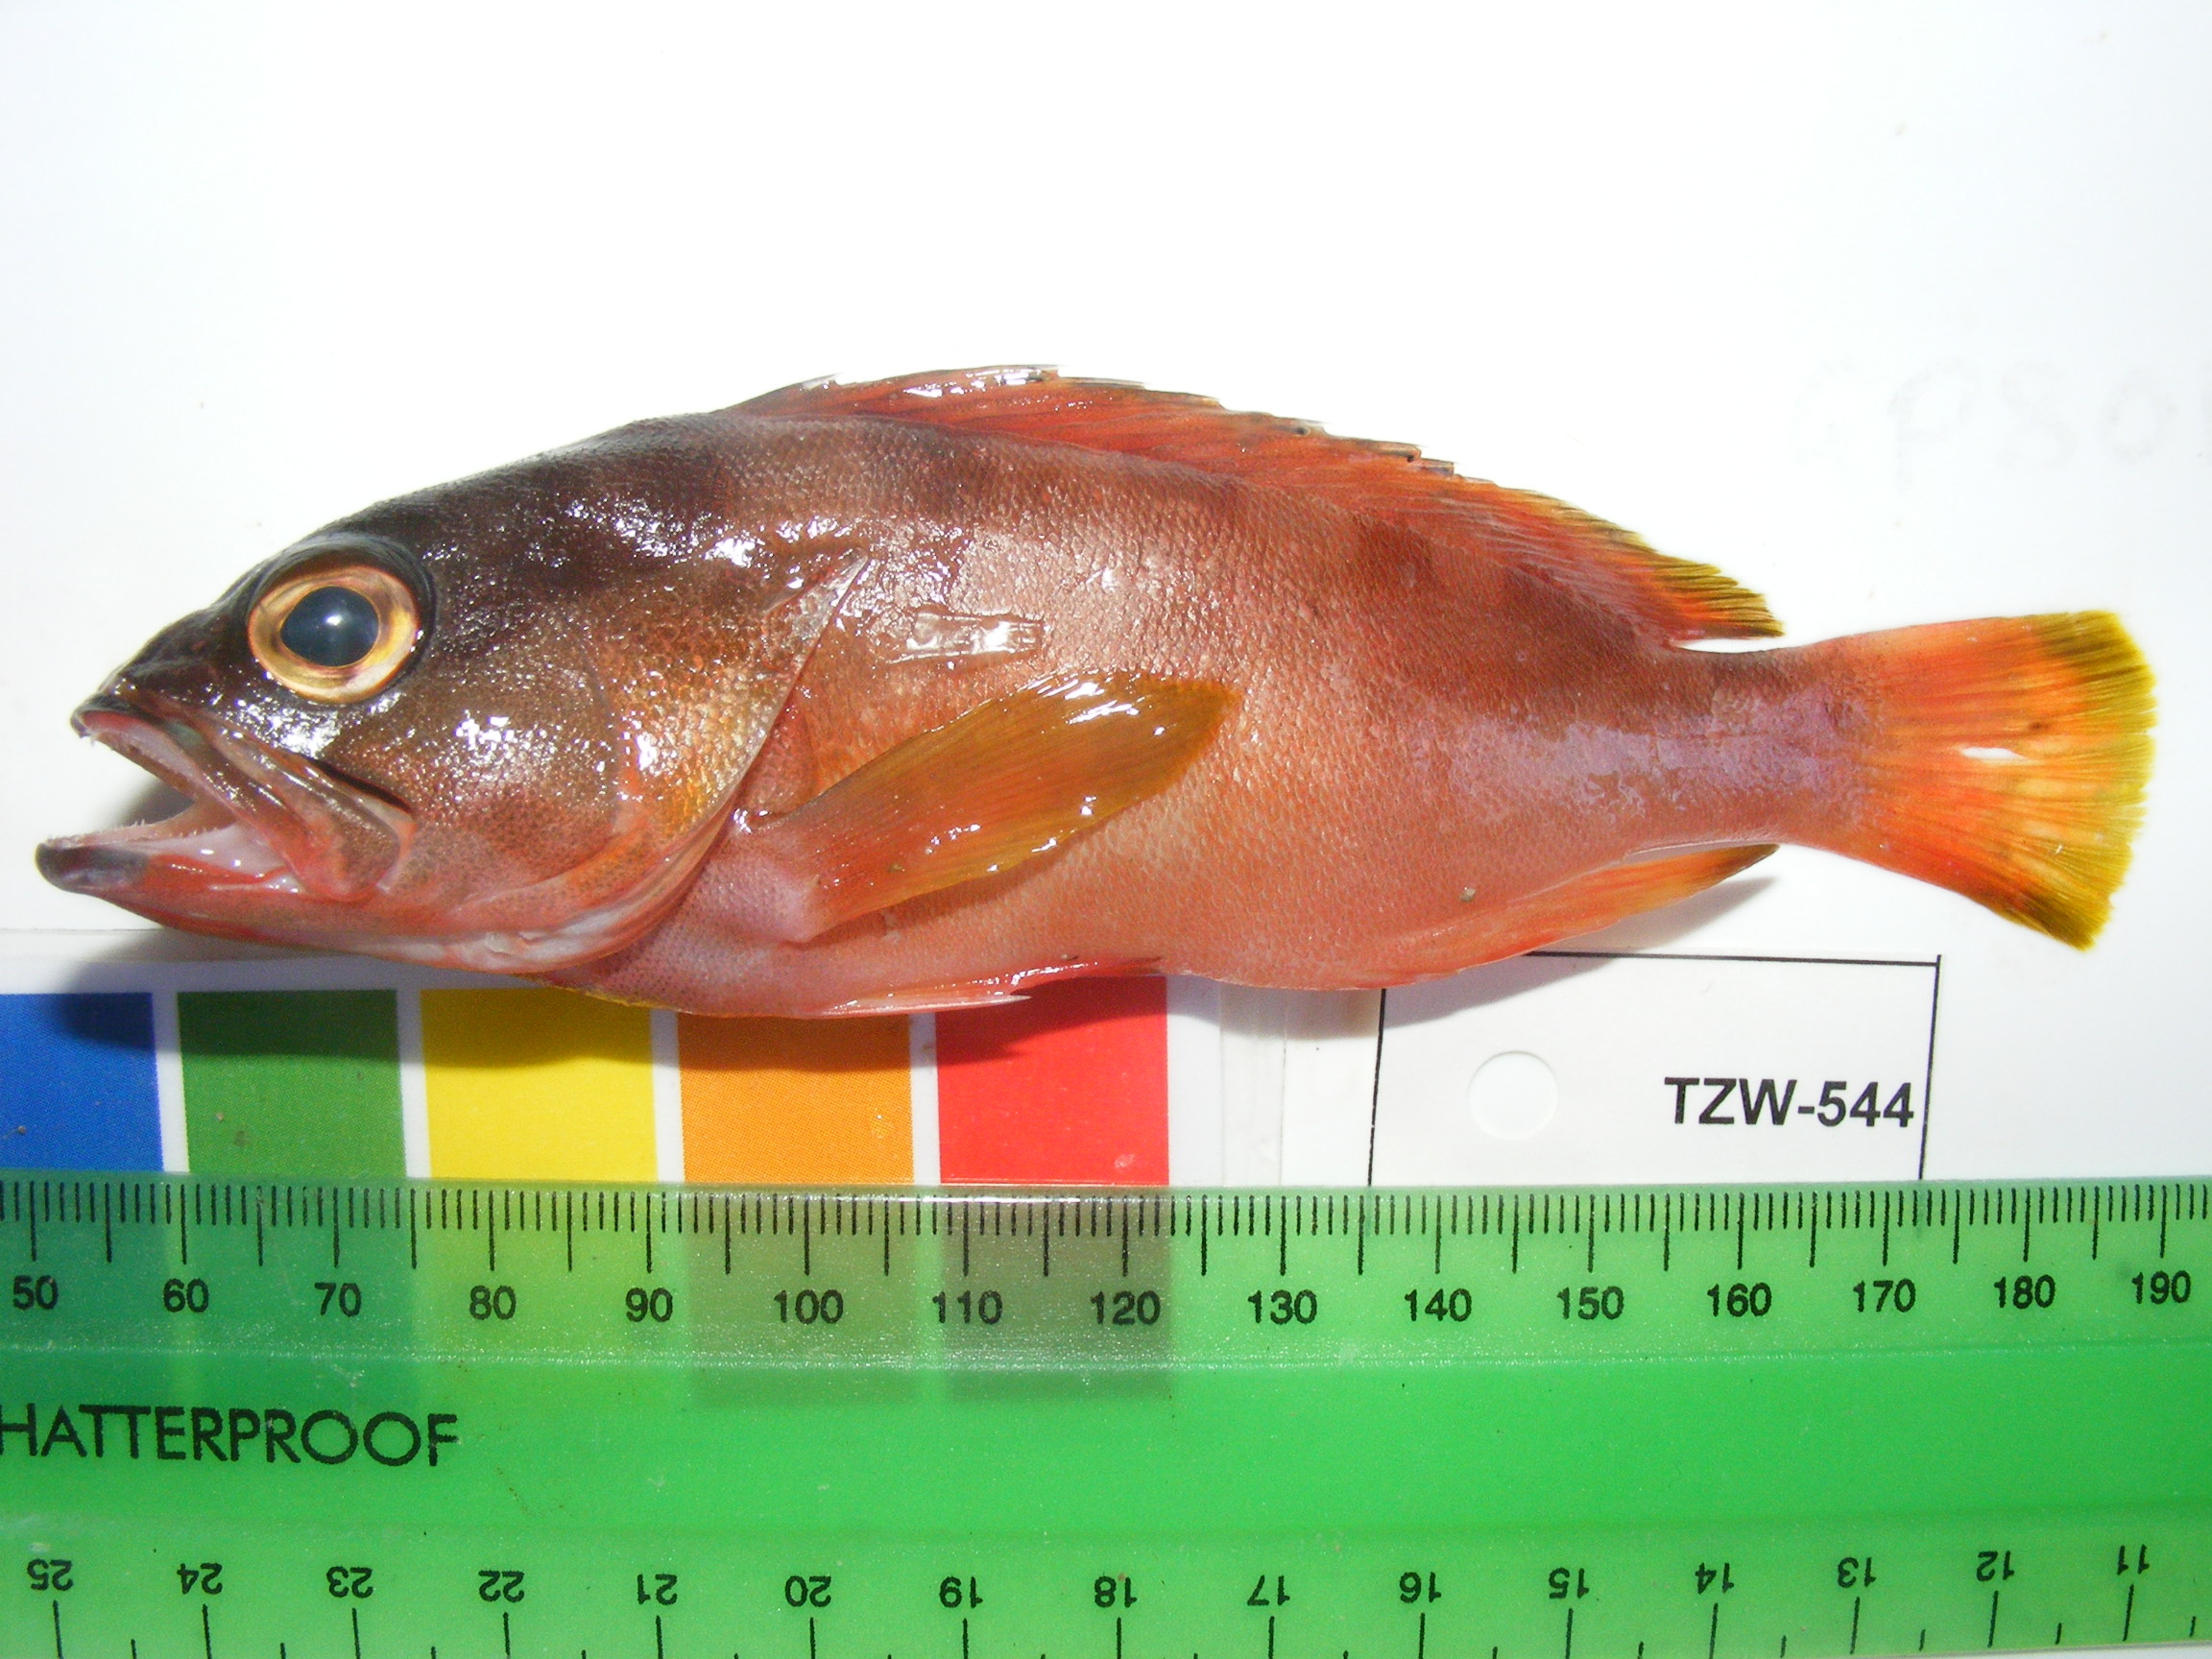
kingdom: Animalia
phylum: Chordata
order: Perciformes
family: Serranidae
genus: Epinephelus
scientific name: Epinephelus fasciatus
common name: Blacktip grouper
